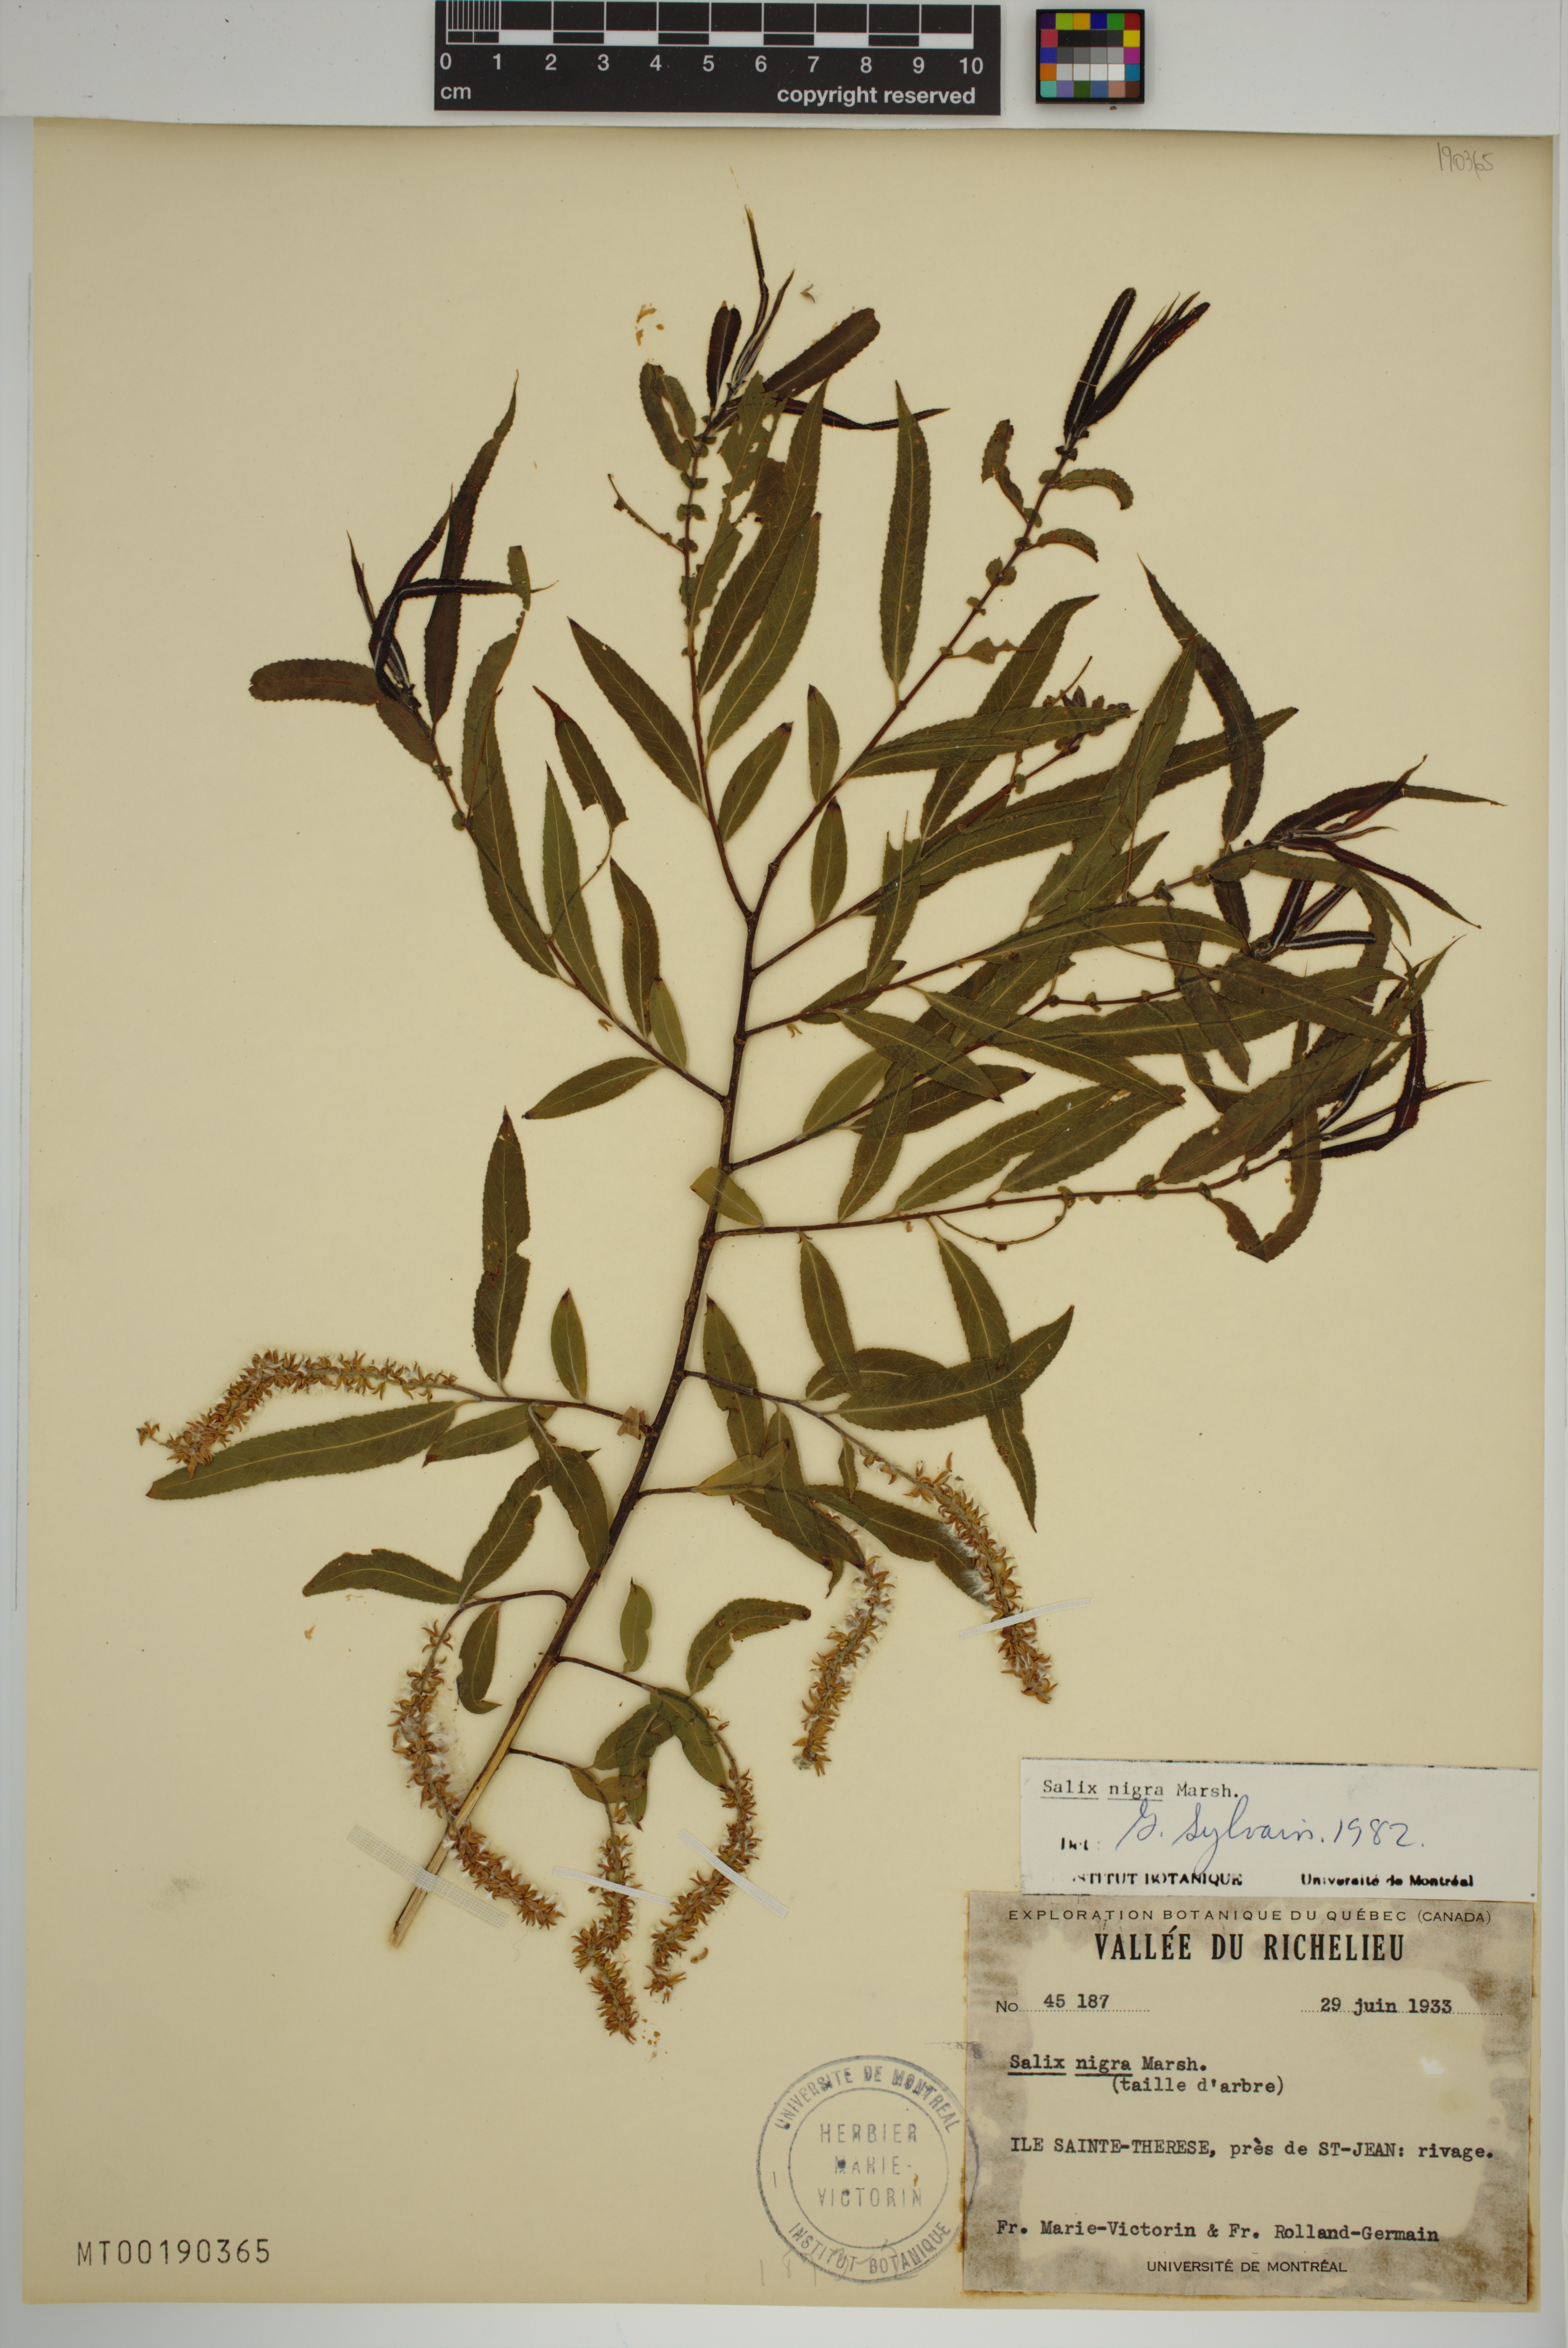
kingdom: Plantae
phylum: Tracheophyta
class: Magnoliopsida
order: Malpighiales
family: Salicaceae
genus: Salix
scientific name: Salix nigra
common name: Black willow
